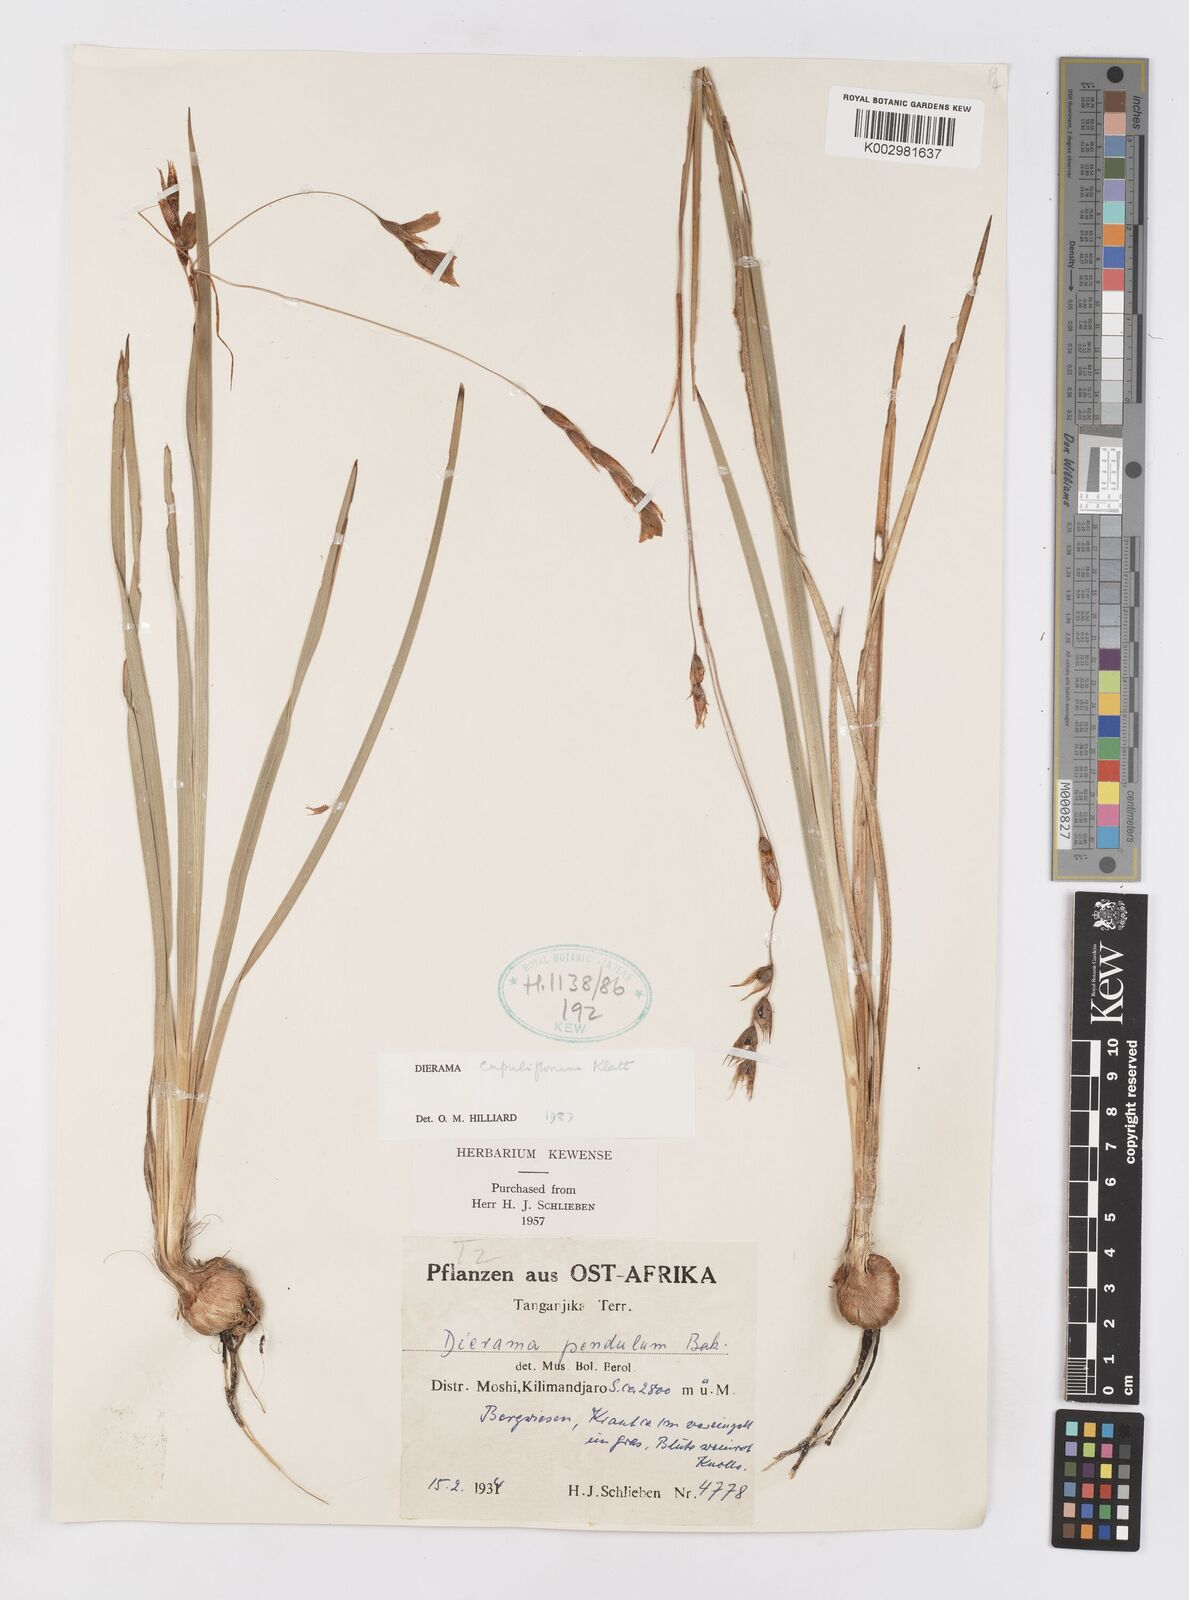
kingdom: Plantae
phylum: Tracheophyta
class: Liliopsida
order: Asparagales
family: Iridaceae
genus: Dierama
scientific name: Dierama cupuliflorum
